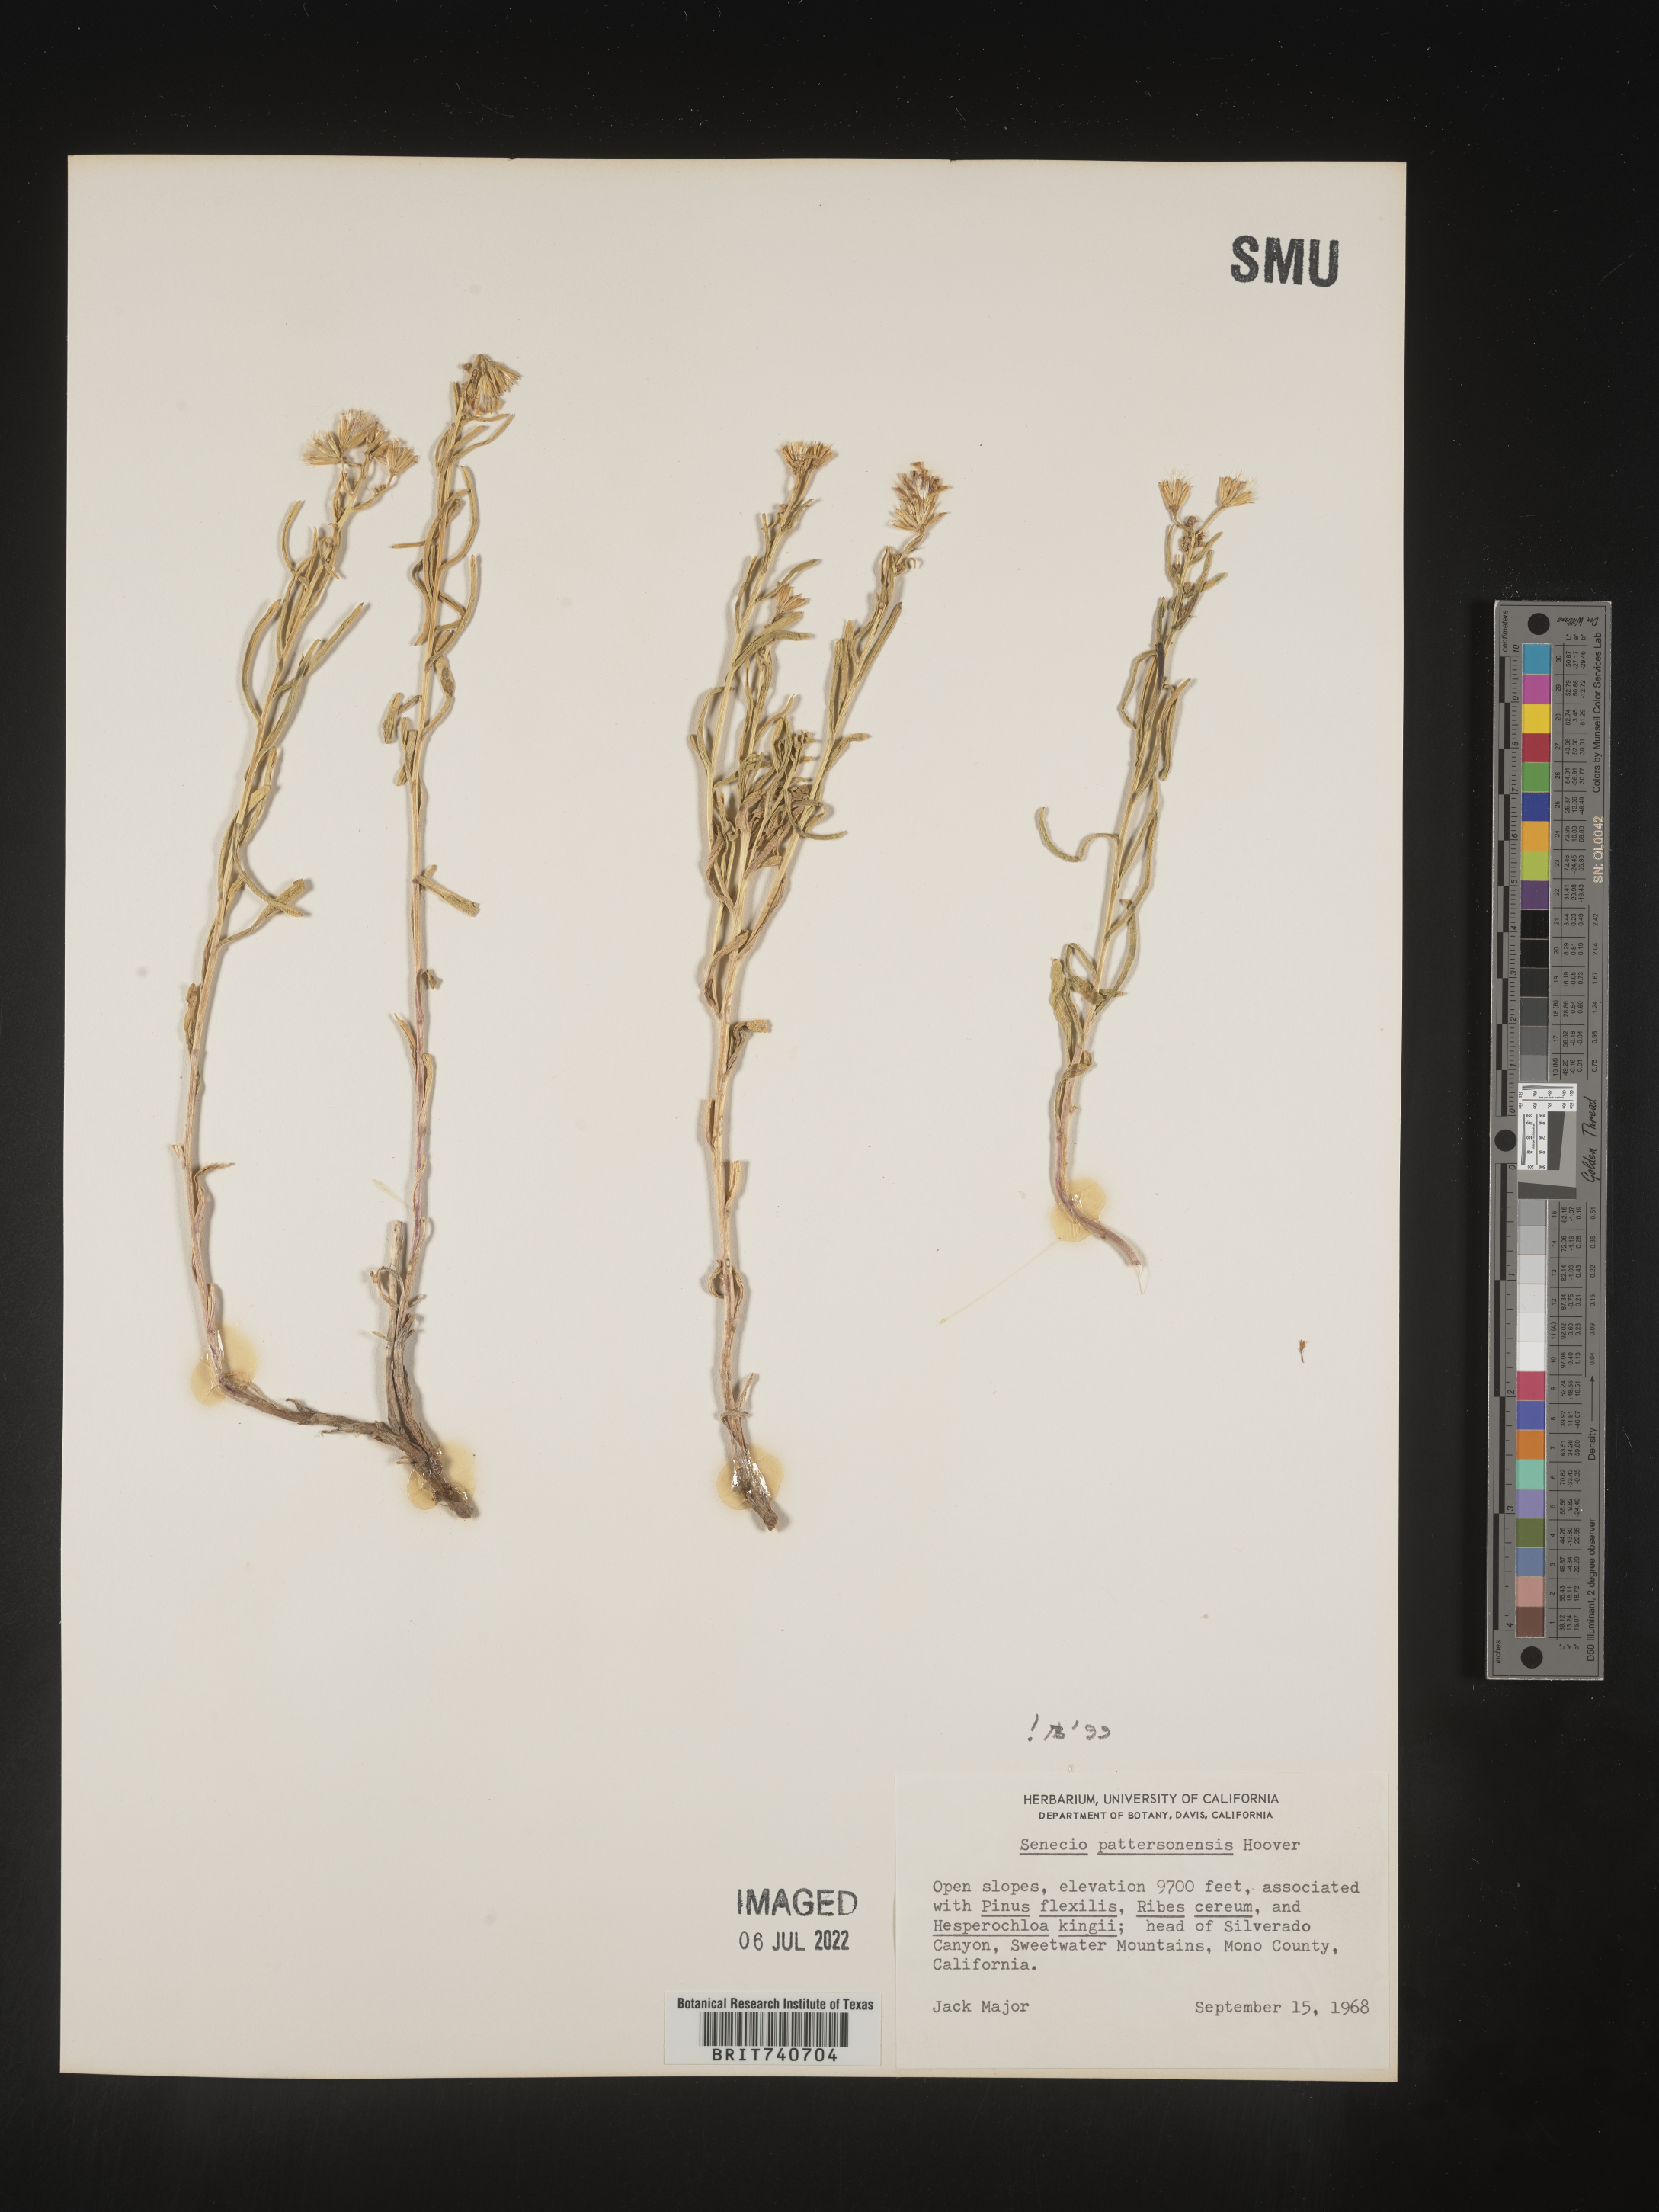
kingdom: Plantae
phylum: Tracheophyta
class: Magnoliopsida
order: Asterales
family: Asteraceae
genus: Senecio
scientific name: Senecio pattersonensis
